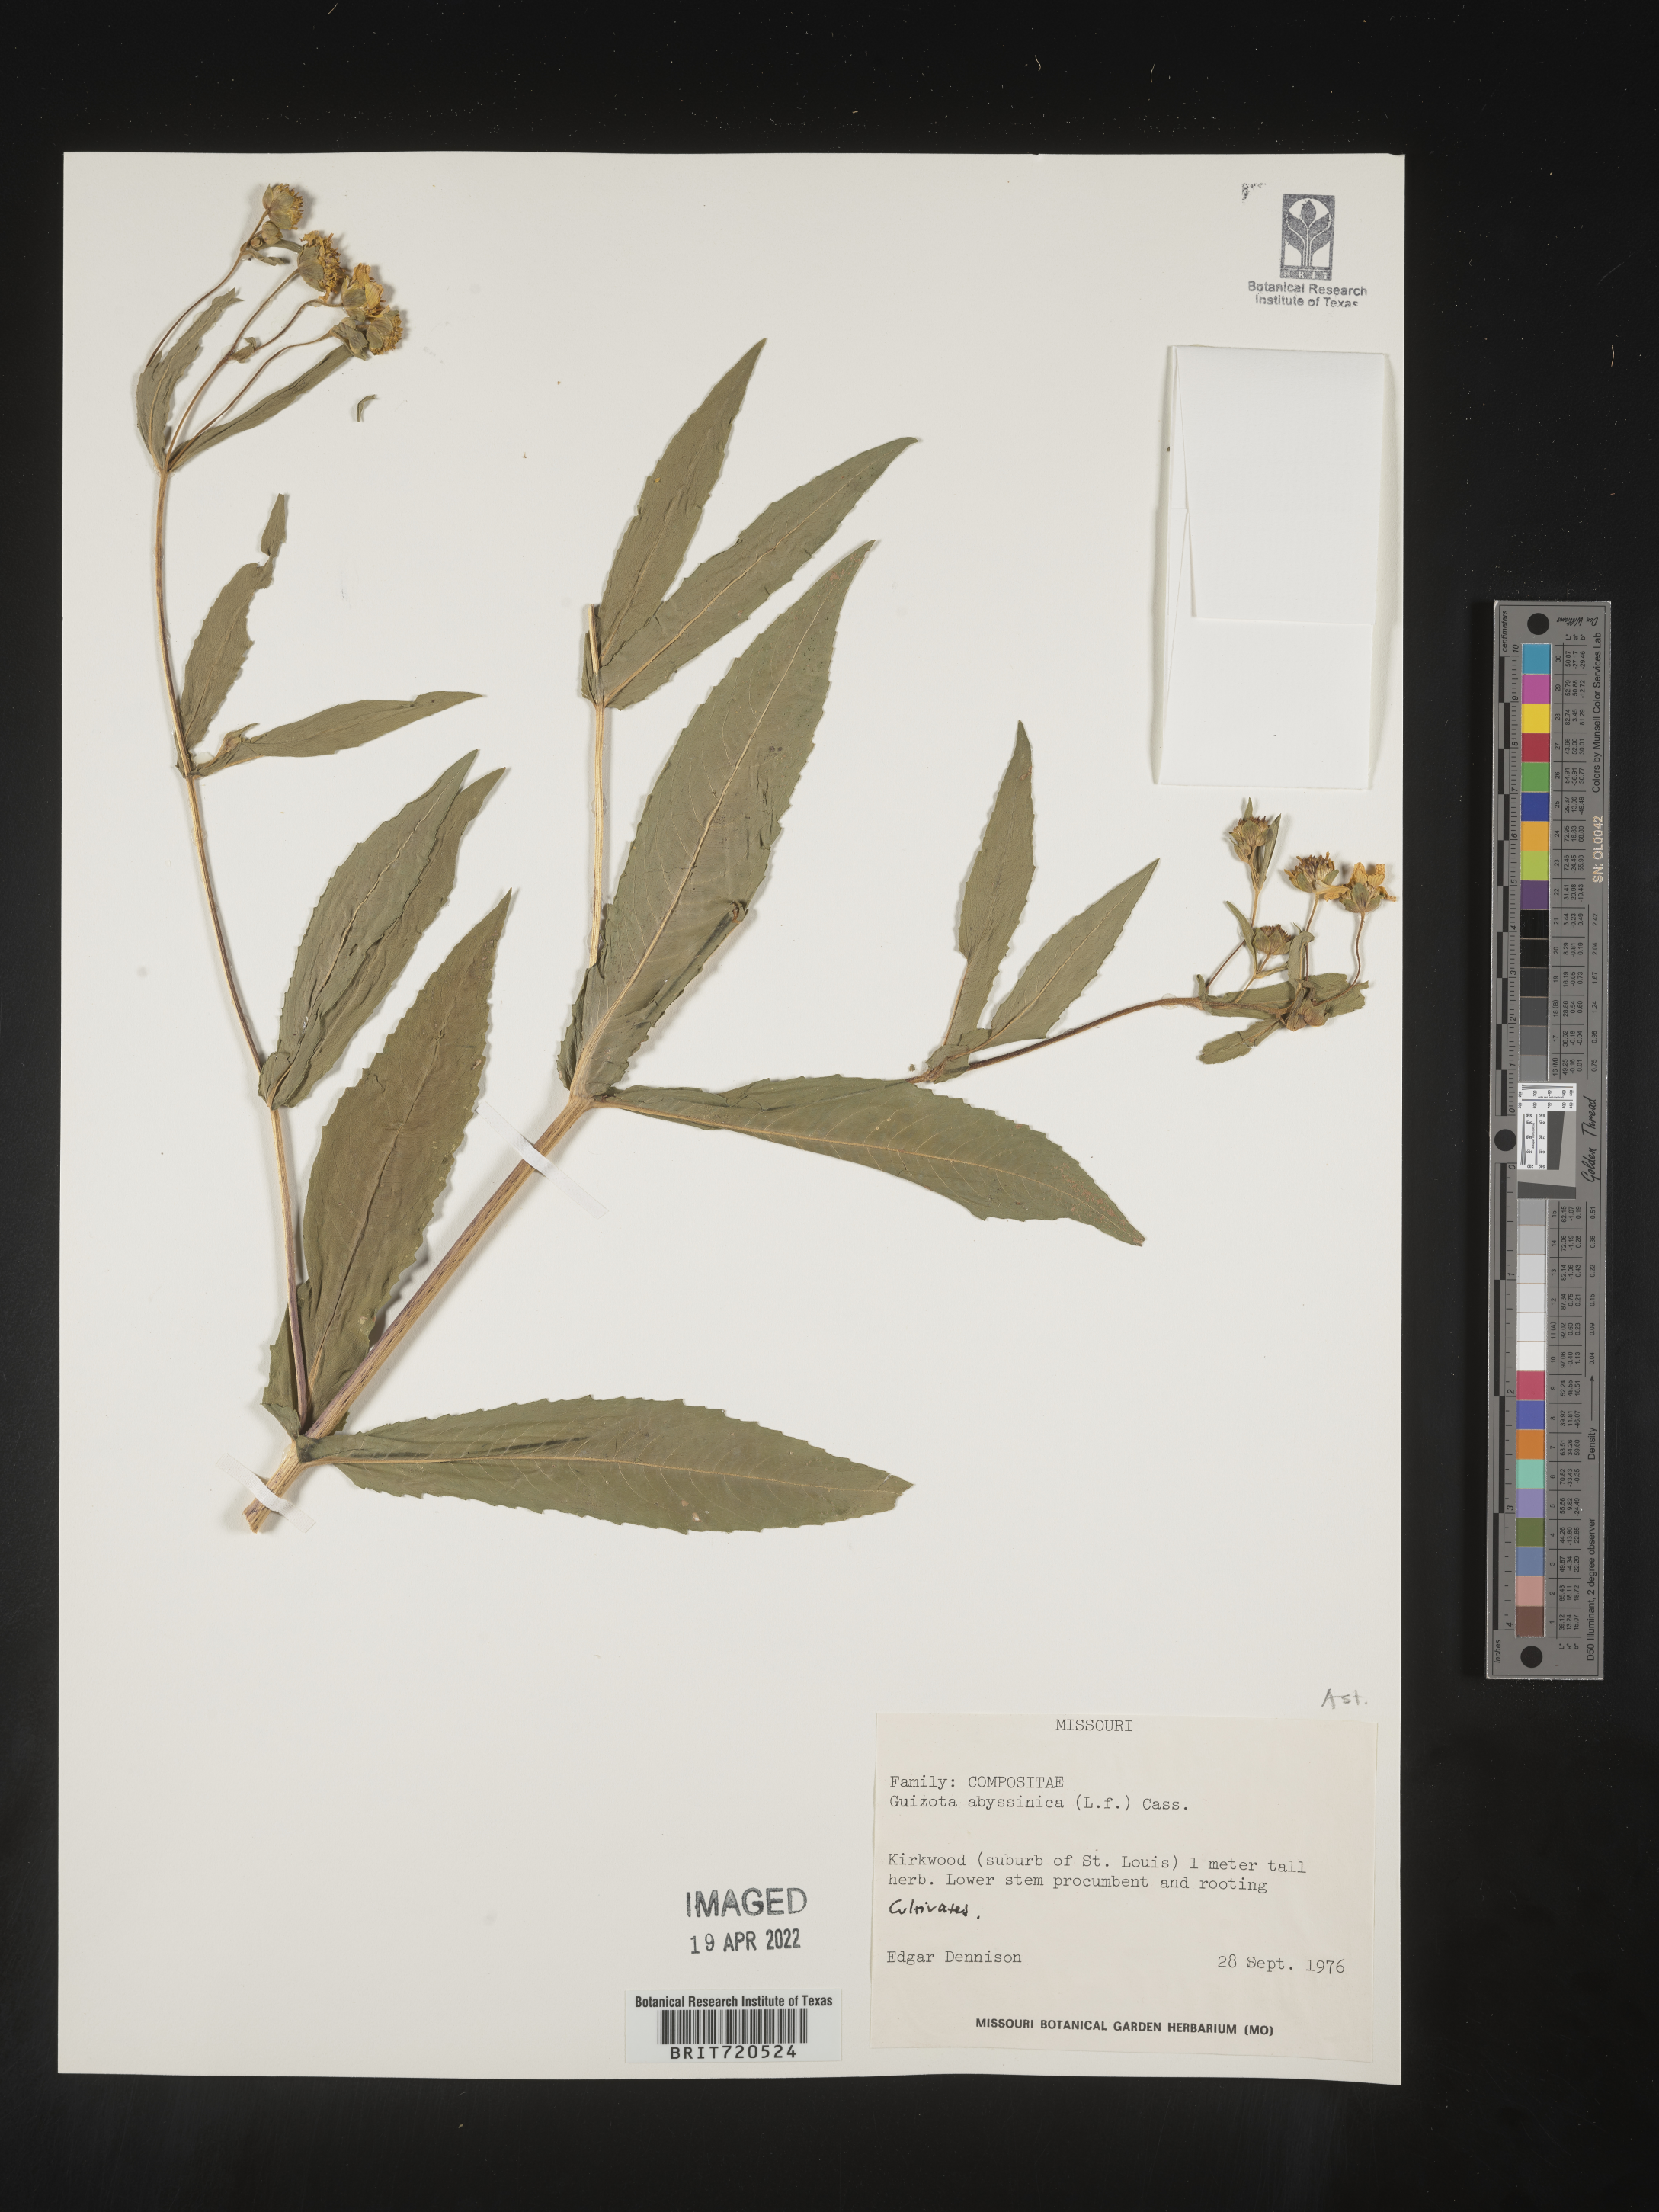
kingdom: Plantae
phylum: Tracheophyta
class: Magnoliopsida
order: Asterales
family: Asteraceae
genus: Guizotia
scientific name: Guizotia
